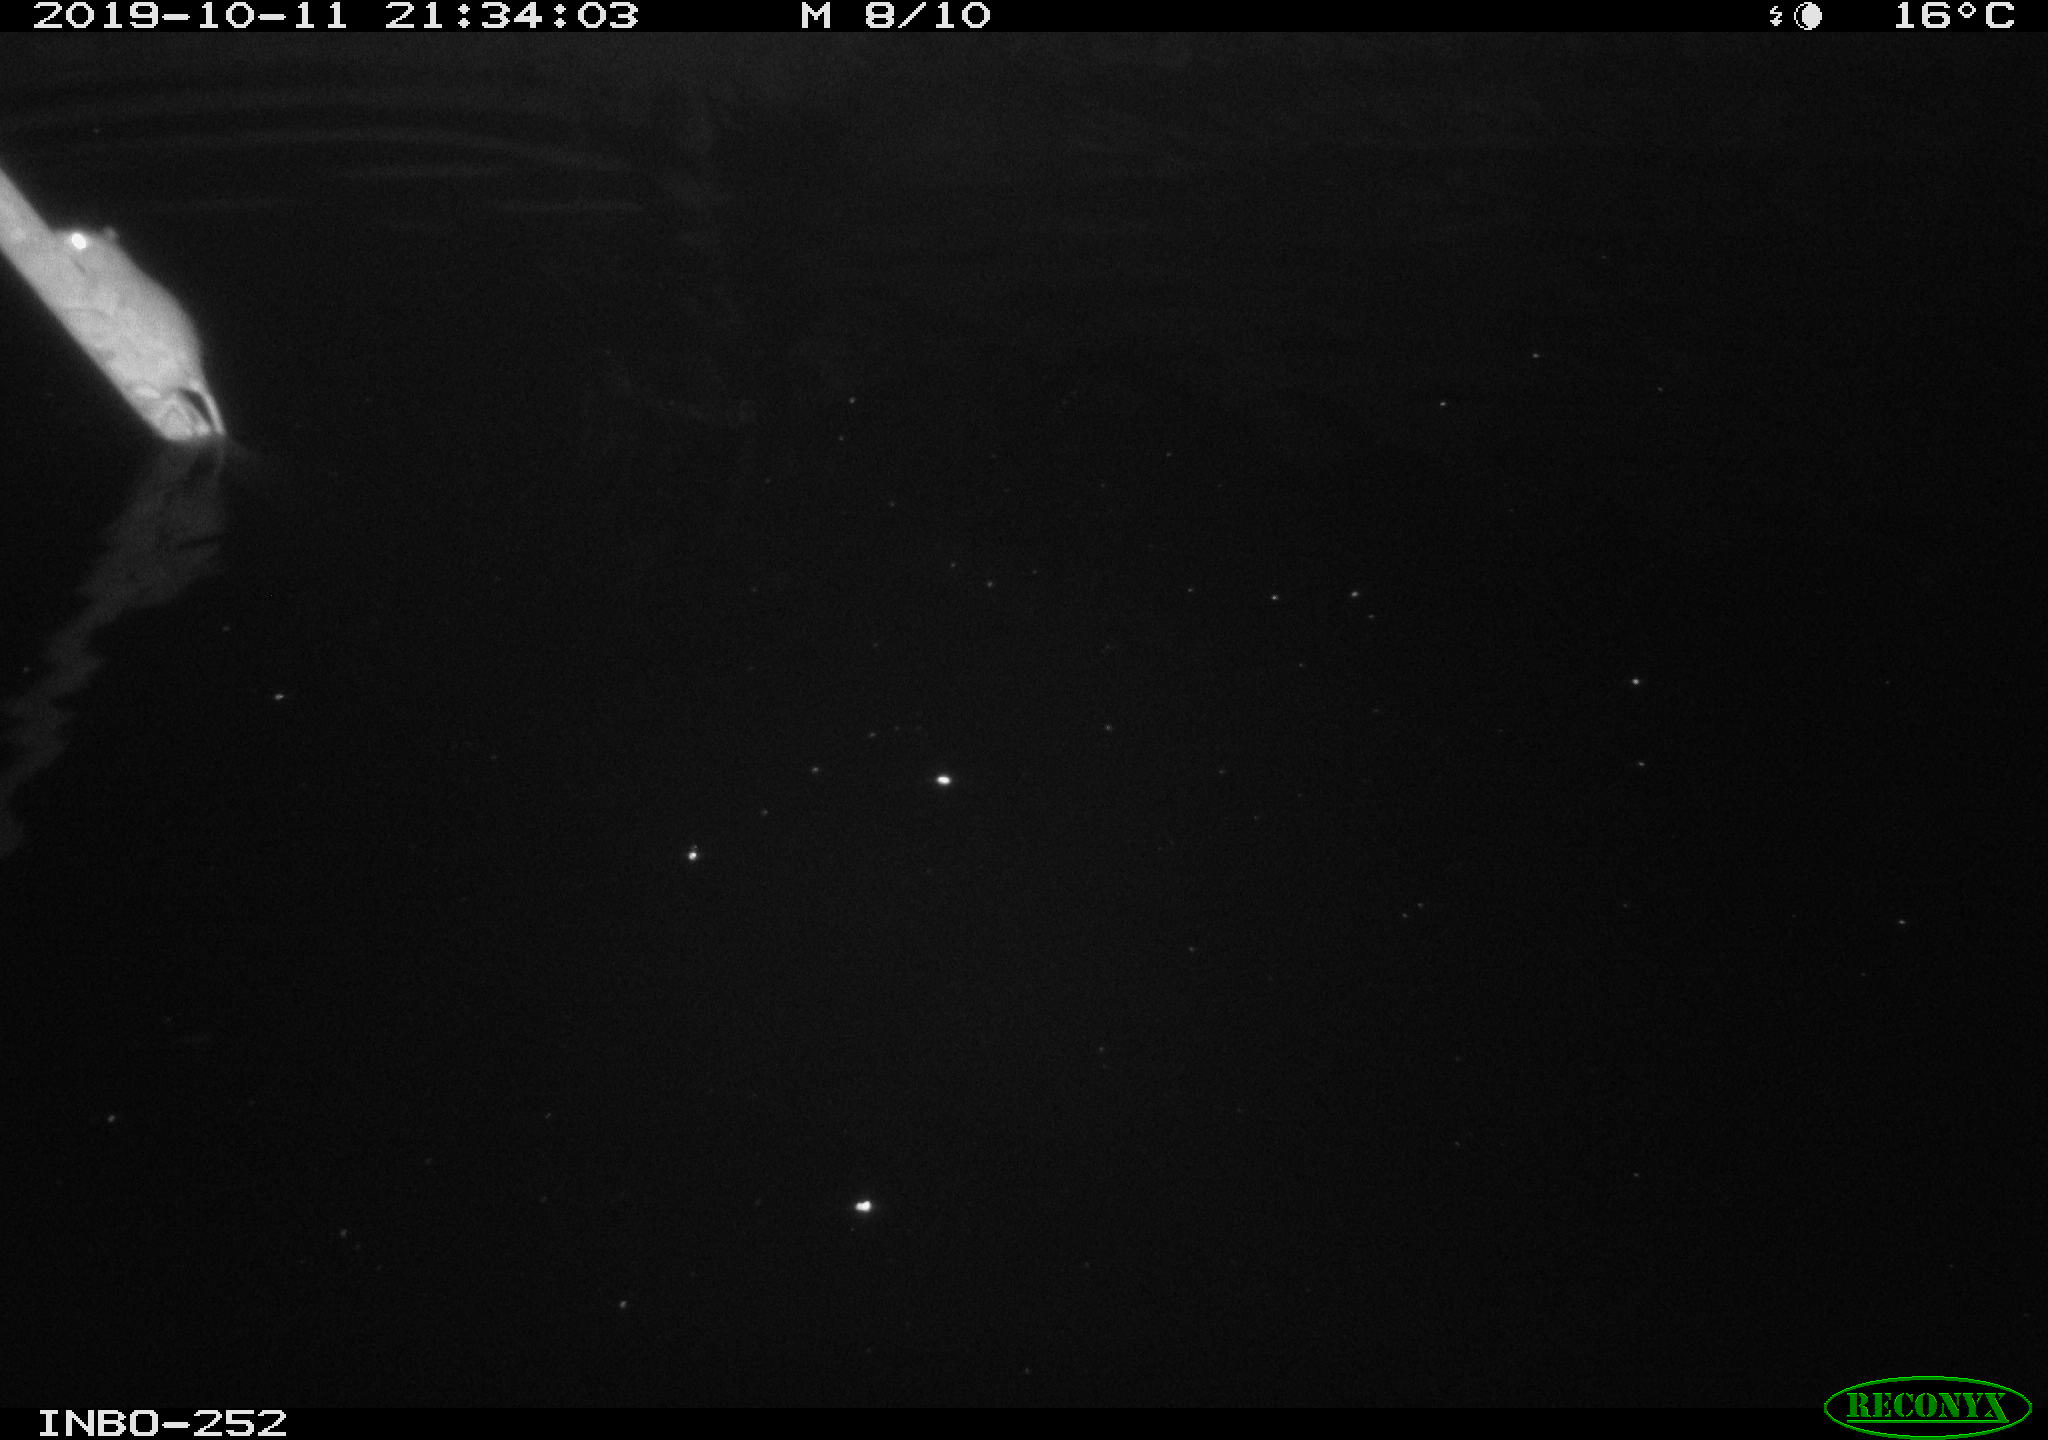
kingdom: Animalia
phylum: Chordata
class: Mammalia
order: Rodentia
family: Muridae
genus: Rattus
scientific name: Rattus norvegicus
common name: Brown rat
